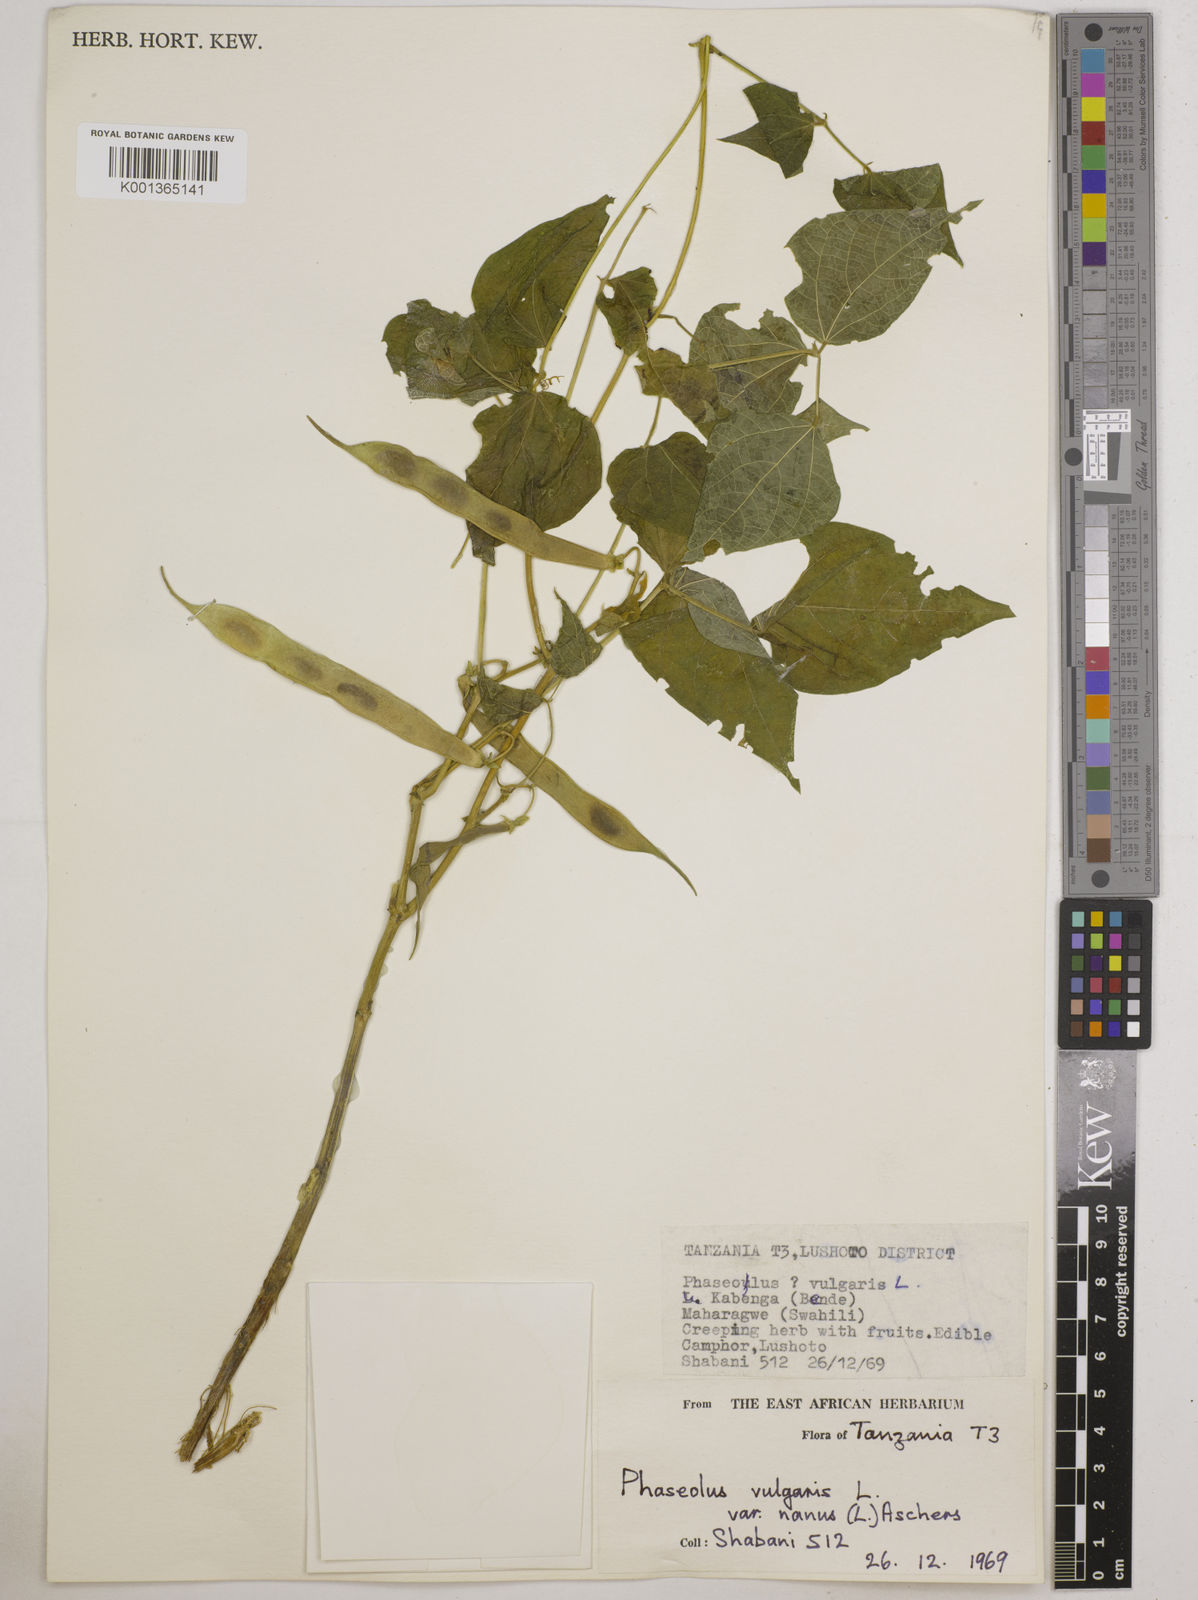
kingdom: Plantae
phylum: Tracheophyta
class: Magnoliopsida
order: Fabales
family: Fabaceae
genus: Phaseolus
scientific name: Phaseolus vulgaris
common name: Bean
